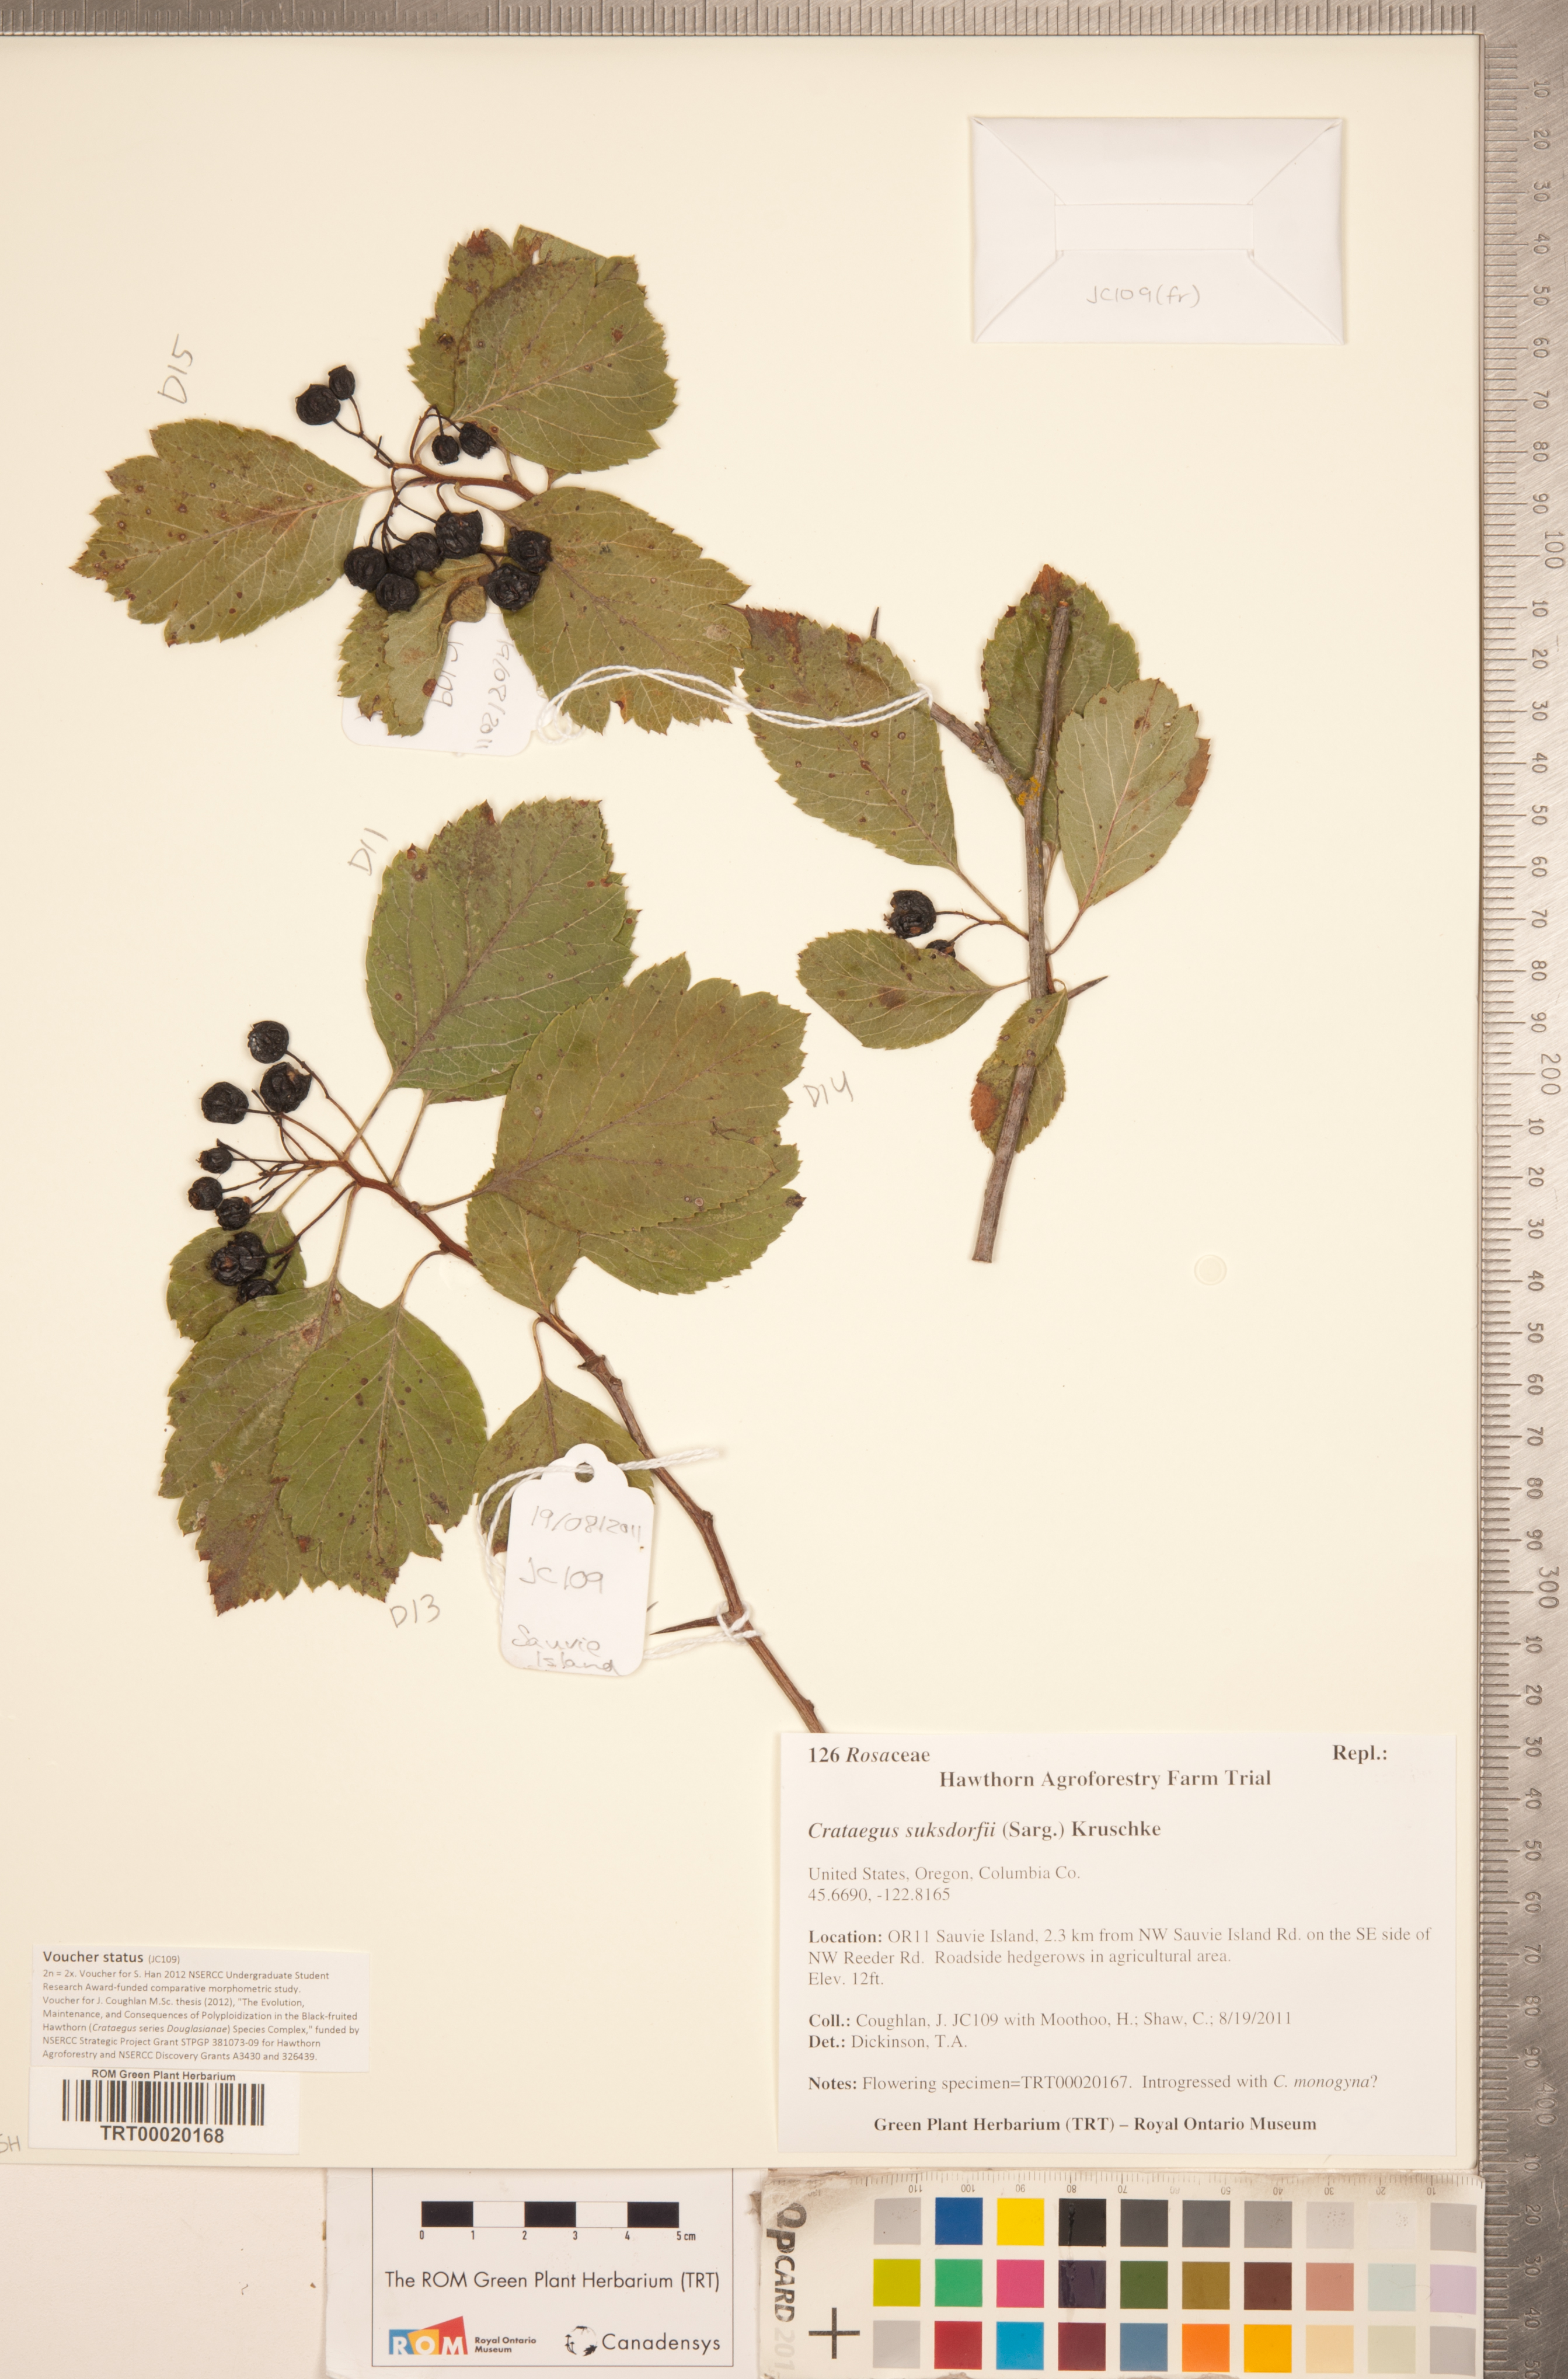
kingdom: Plantae
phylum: Tracheophyta
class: Magnoliopsida
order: Rosales
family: Rosaceae
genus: Crataegus
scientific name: Crataegus gaylussacia
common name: Huckleberry hawthorn
